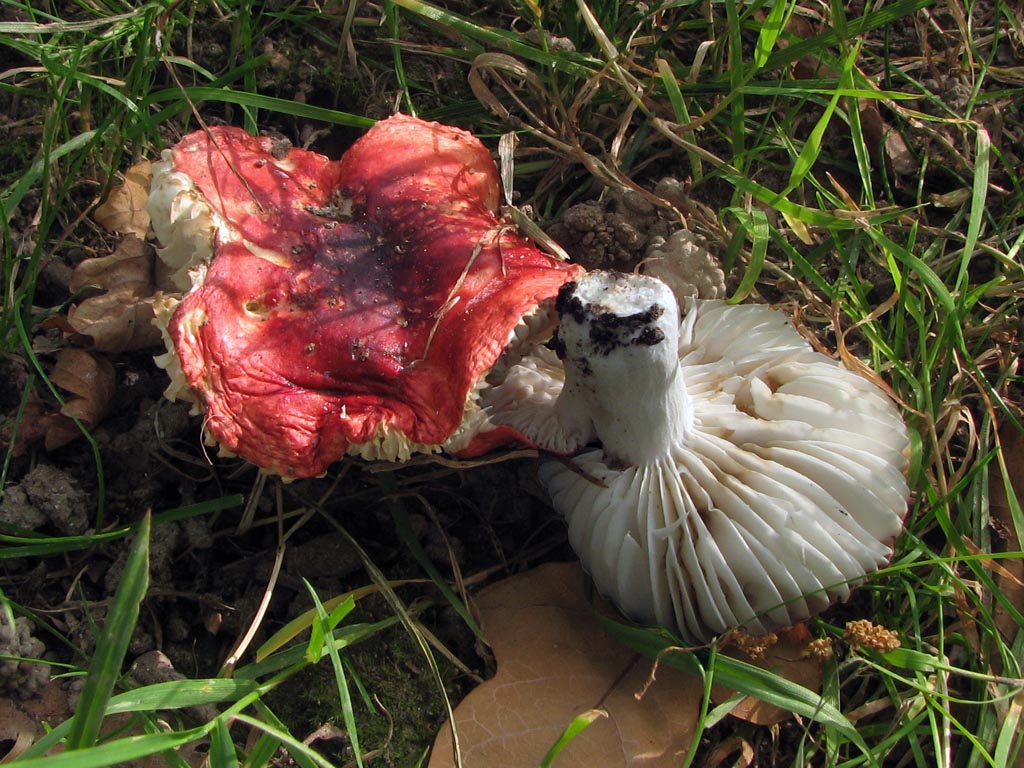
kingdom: Fungi
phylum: Basidiomycota
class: Agaricomycetes
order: Russulales
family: Russulaceae
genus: Russula
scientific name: Russula emetica
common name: stor gift-skørhat
